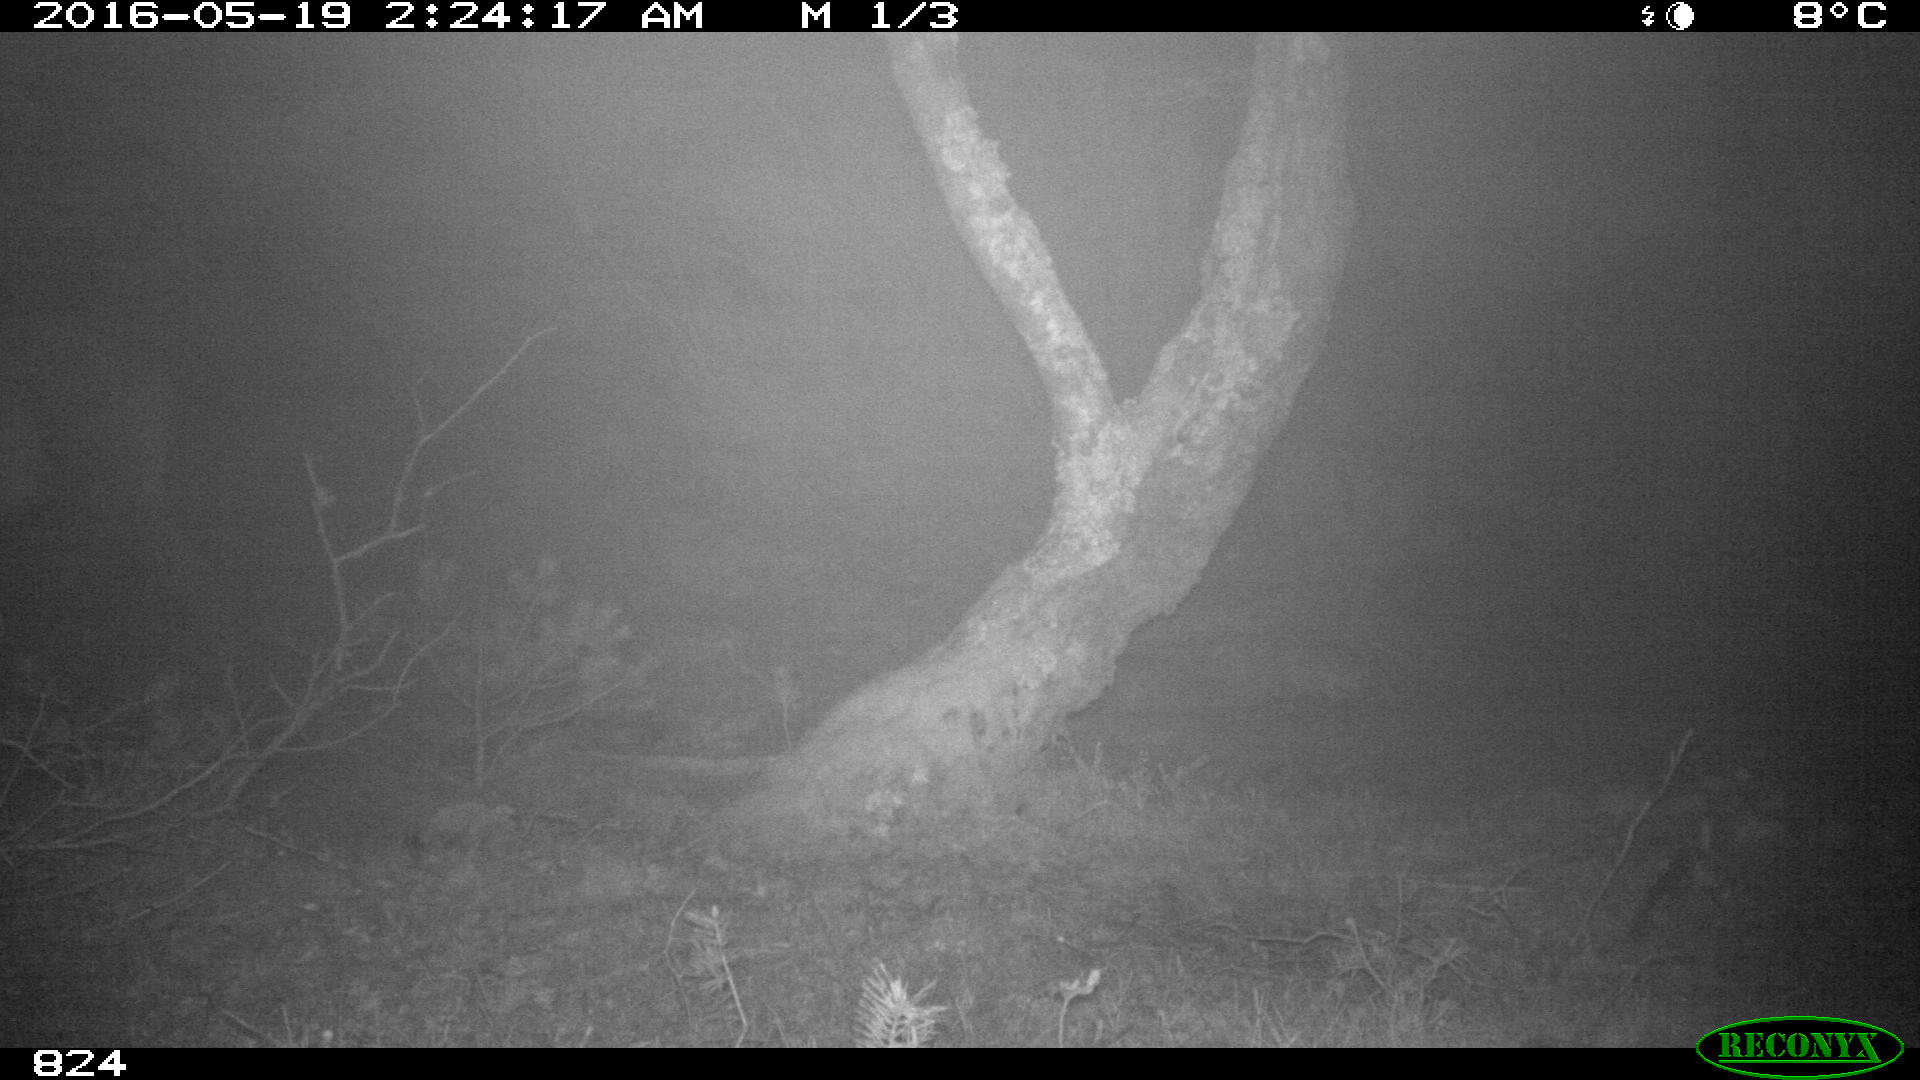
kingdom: Animalia
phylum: Chordata
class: Mammalia
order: Perissodactyla
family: Equidae
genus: Equus
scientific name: Equus caballus
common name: Horse
